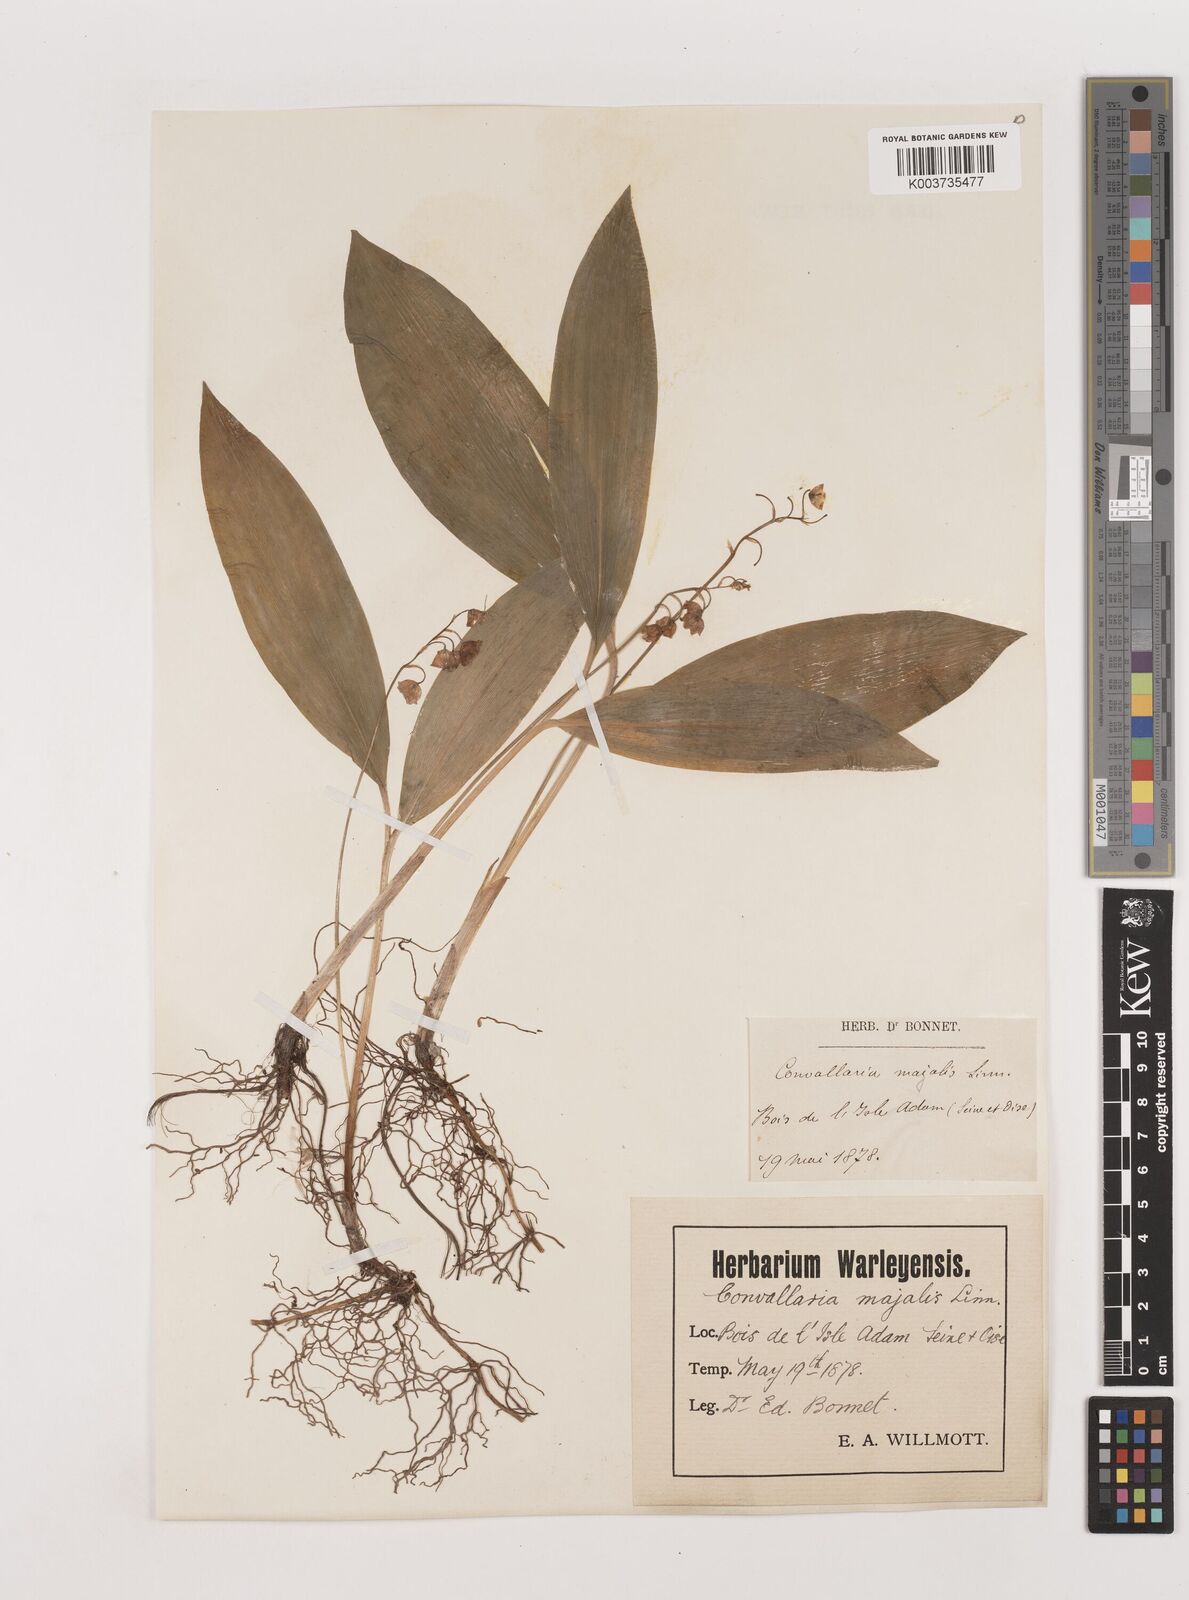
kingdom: Plantae
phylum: Tracheophyta
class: Liliopsida
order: Asparagales
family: Asparagaceae
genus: Convallaria
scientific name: Convallaria majalis
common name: Lily-of-the-valley
